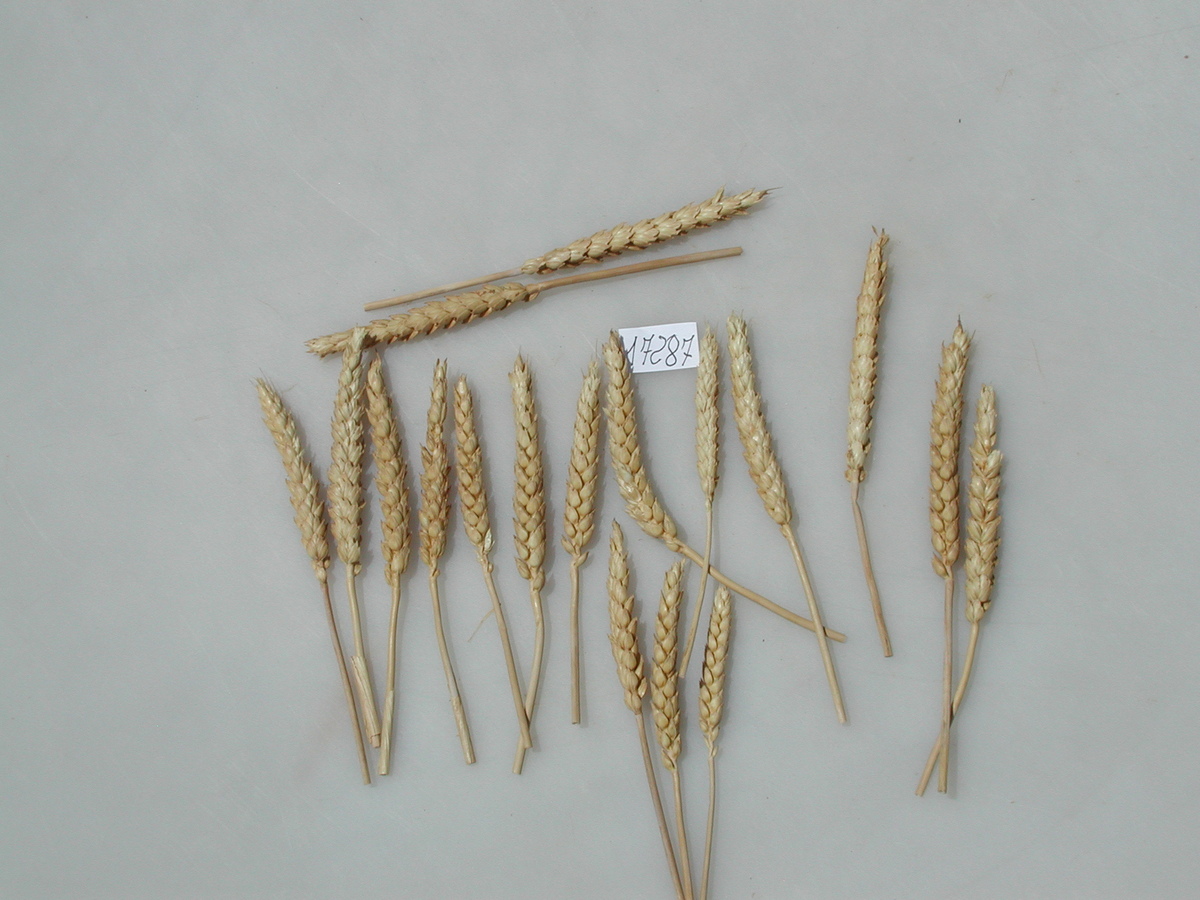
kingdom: Plantae
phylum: Tracheophyta
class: Liliopsida
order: Poales
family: Poaceae
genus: Triticum
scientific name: Triticum
